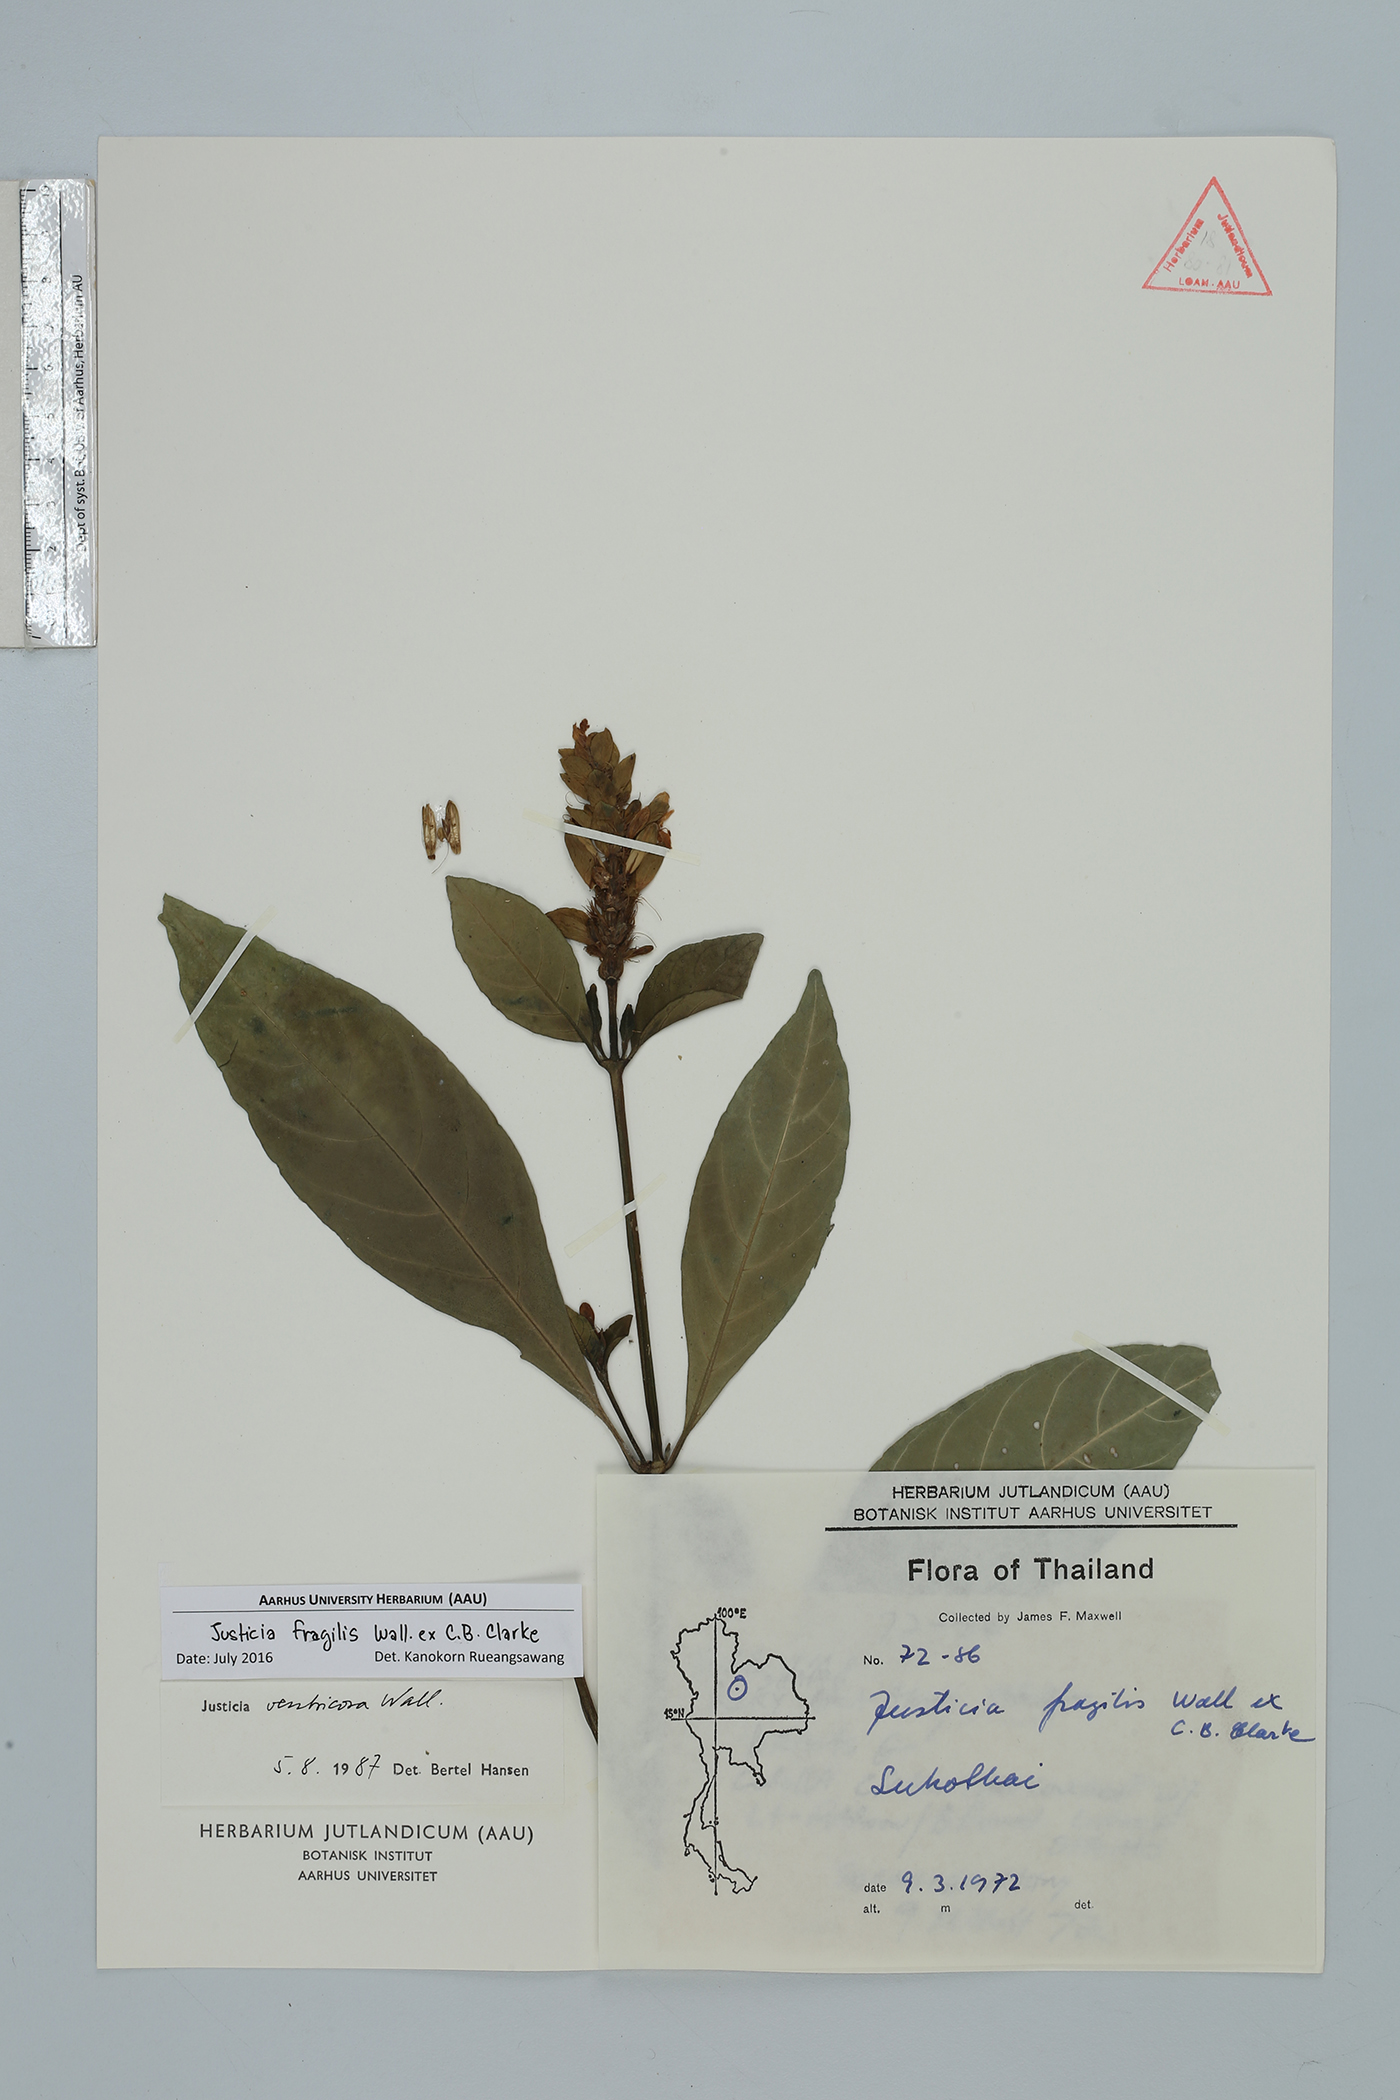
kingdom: Plantae
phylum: Tracheophyta
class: Magnoliopsida
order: Lamiales
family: Acanthaceae
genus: Justicia
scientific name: Justicia amherstia
